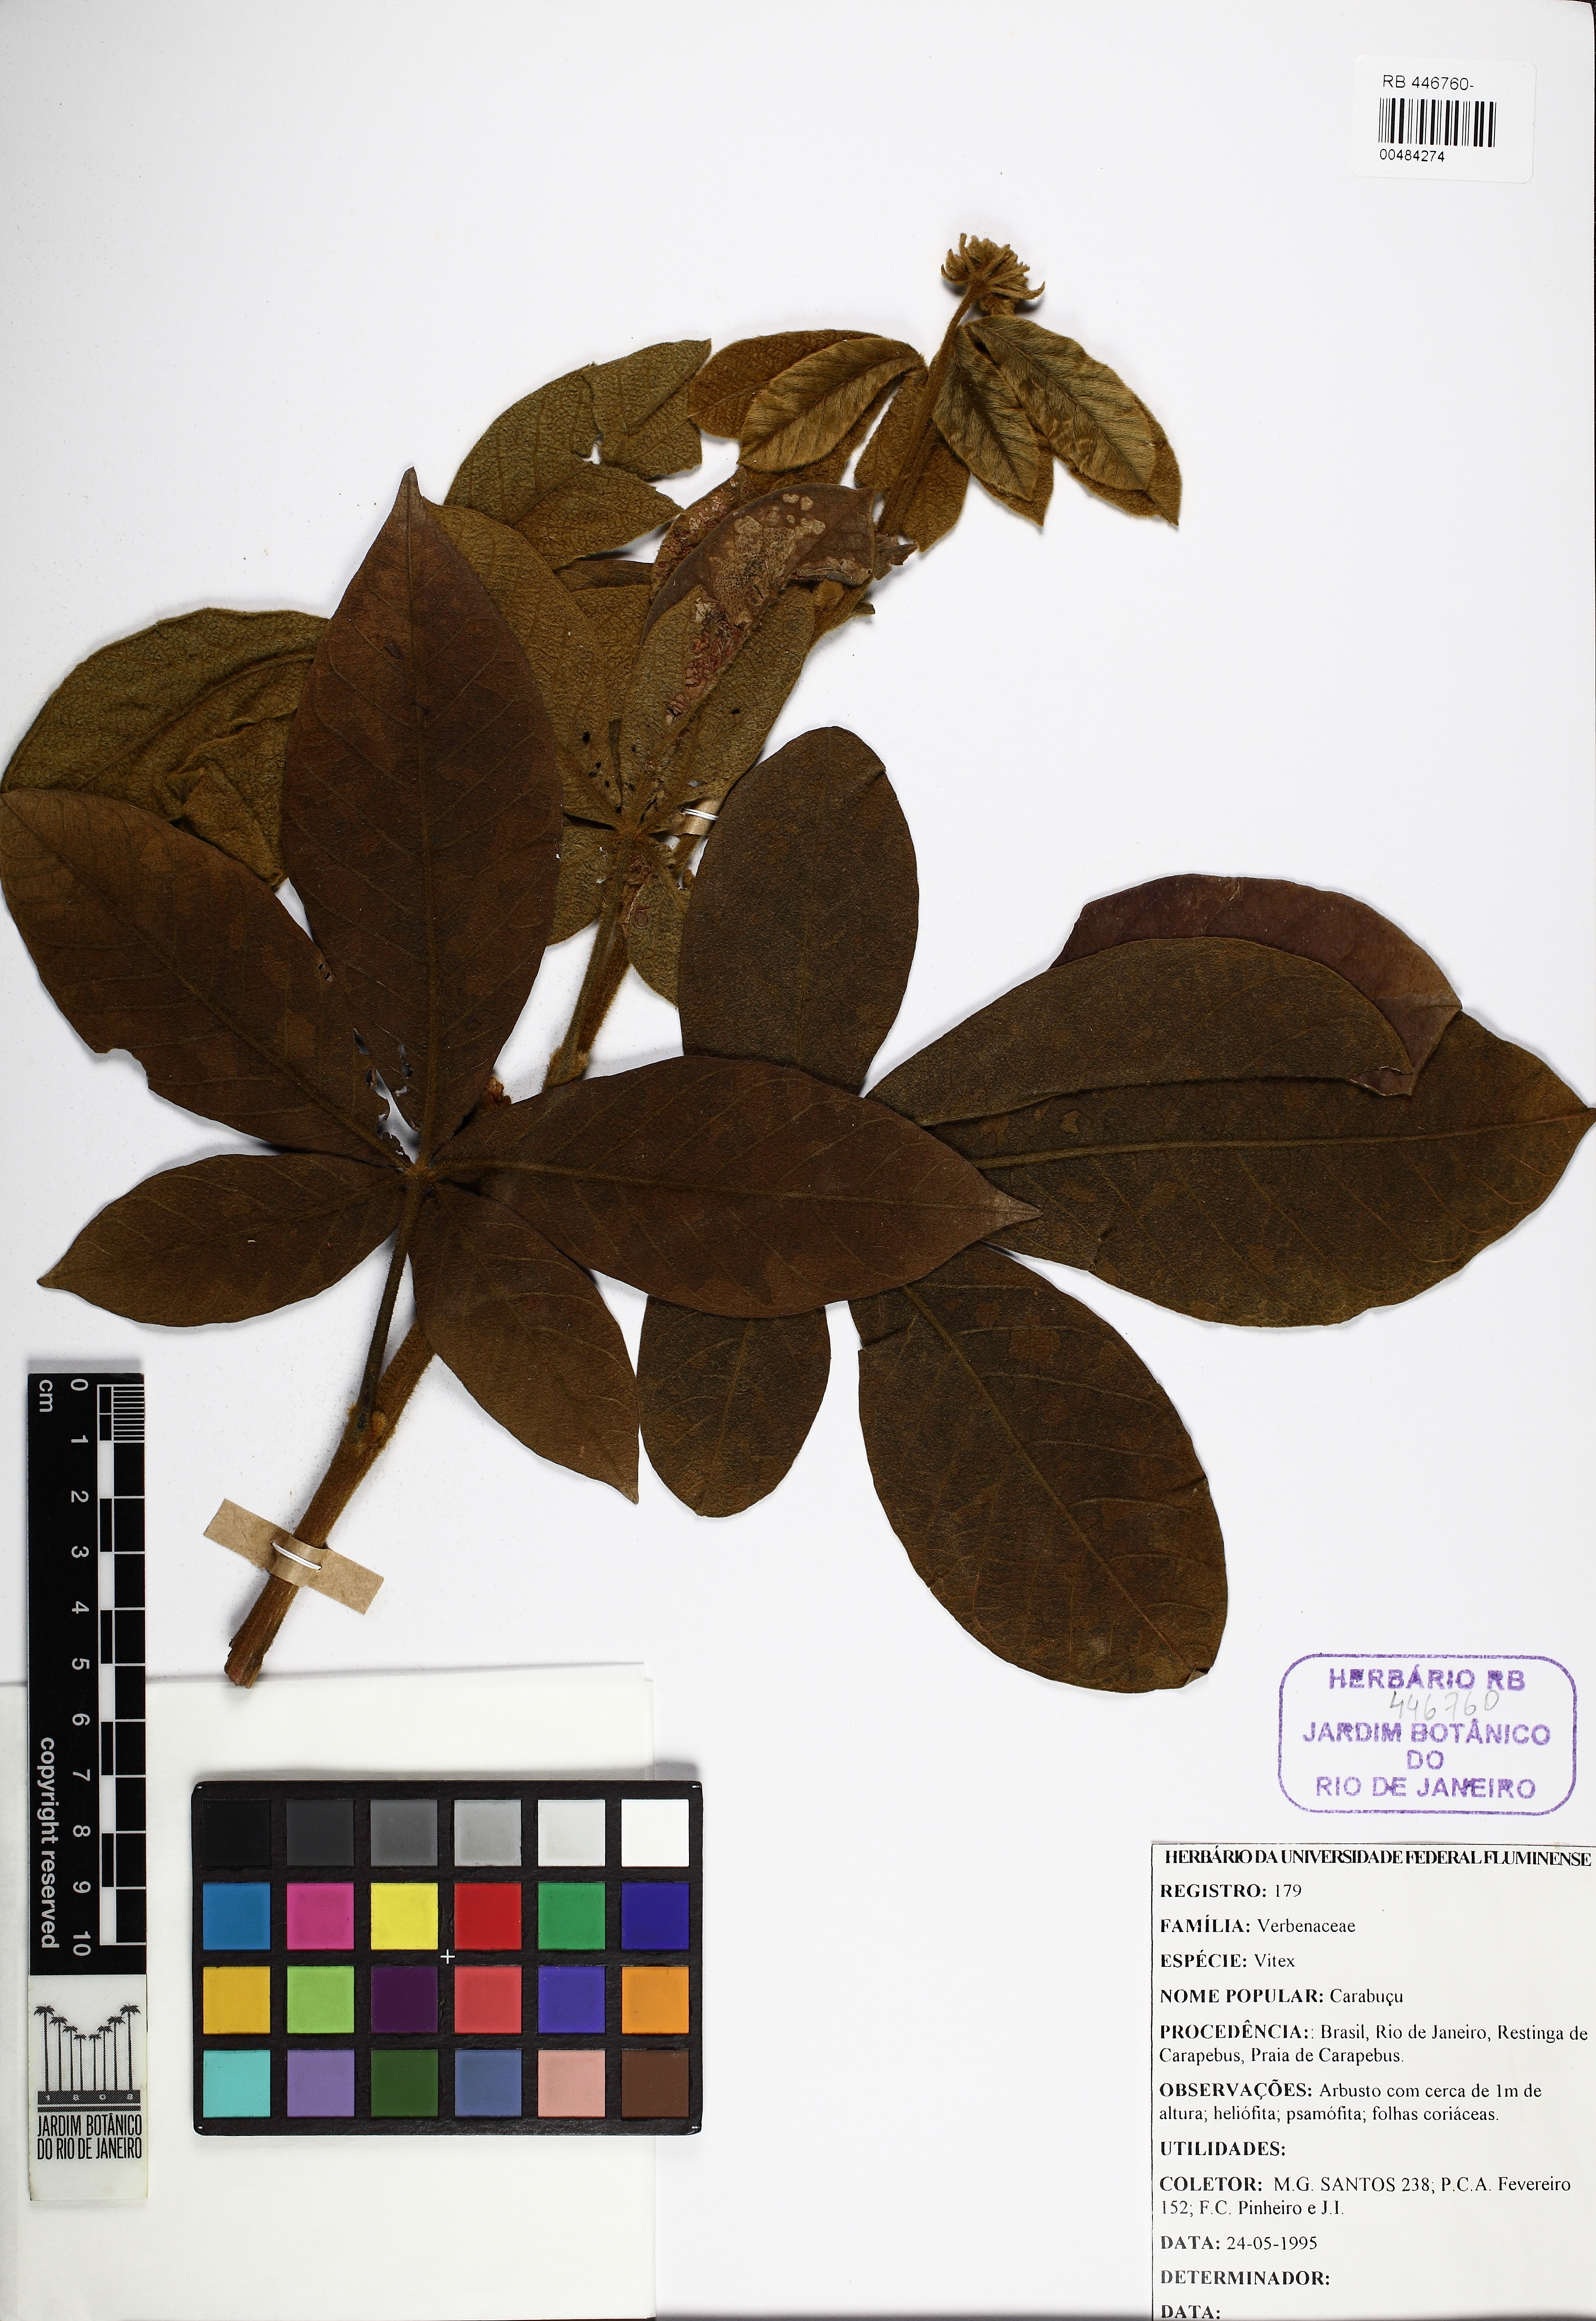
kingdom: Plantae
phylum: Tracheophyta
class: Magnoliopsida
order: Lamiales
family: Lamiaceae
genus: Vitex
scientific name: Vitex
